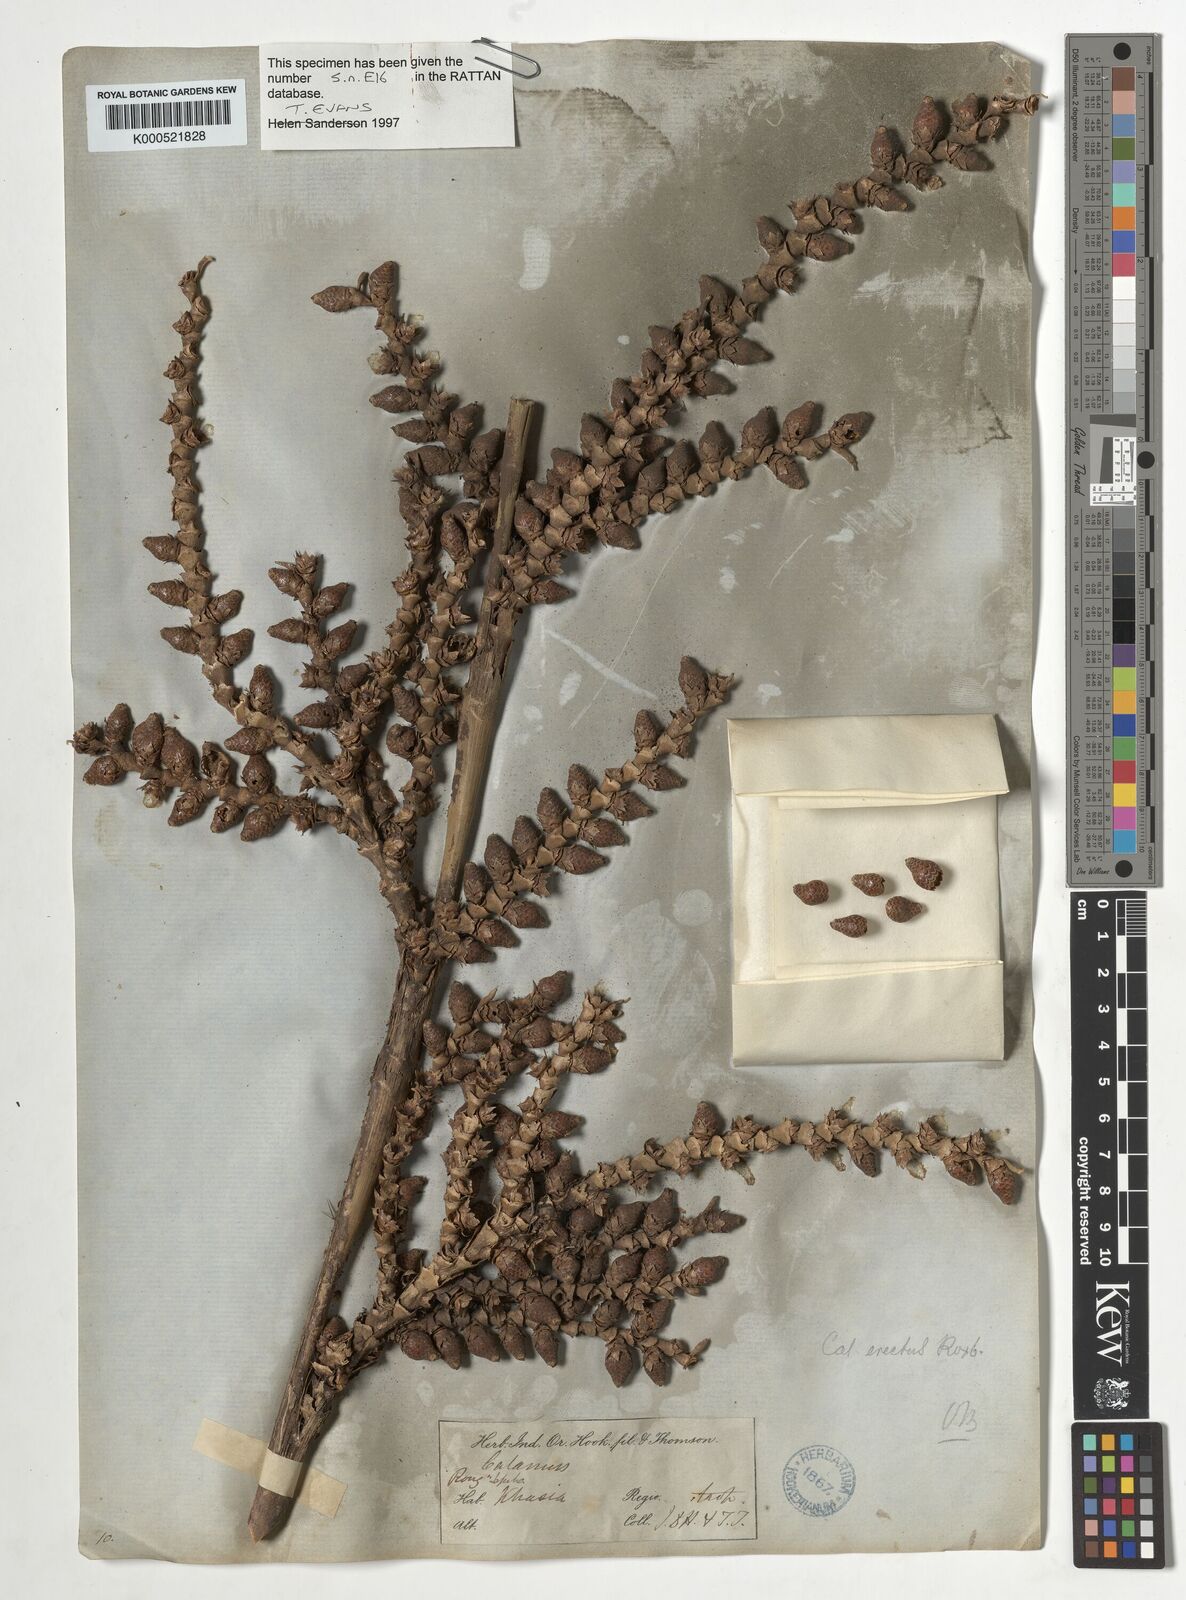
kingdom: Plantae
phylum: Tracheophyta
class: Liliopsida
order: Arecales
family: Arecaceae
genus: Calamus
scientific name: Calamus erectus
